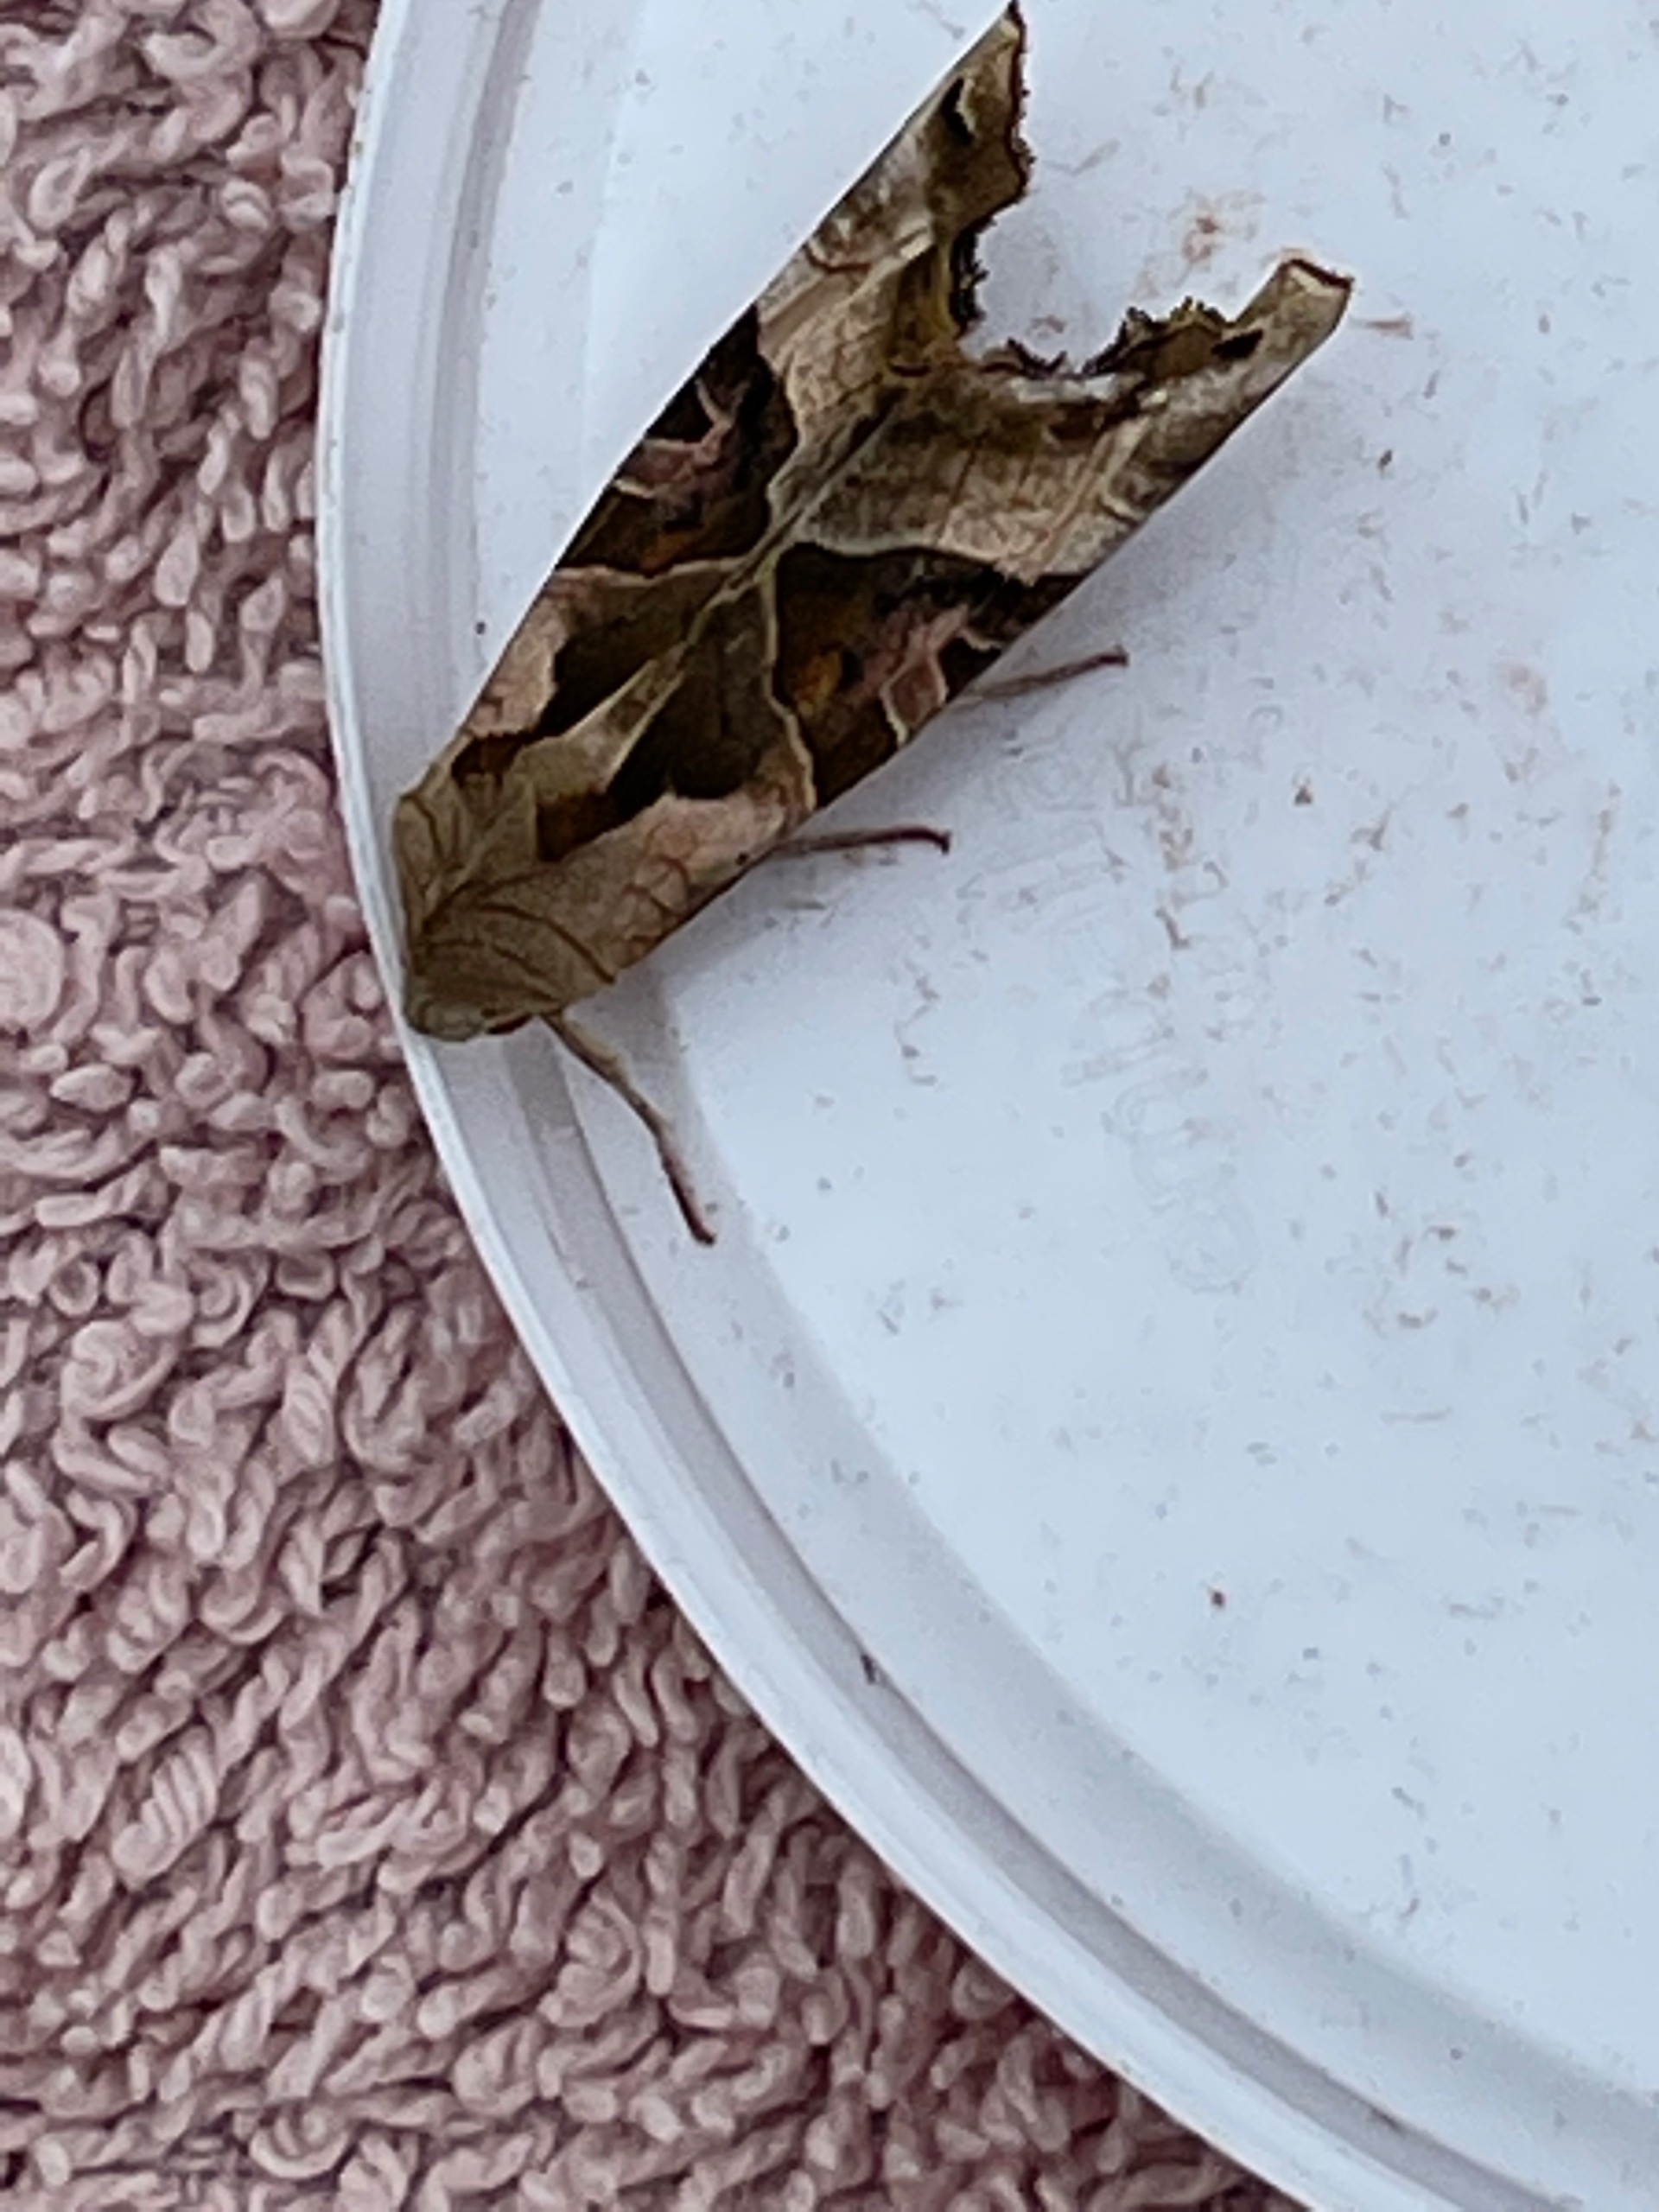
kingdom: Animalia
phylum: Arthropoda
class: Insecta
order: Lepidoptera
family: Noctuidae
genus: Phlogophora
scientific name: Phlogophora meticulosa
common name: Agatugle
